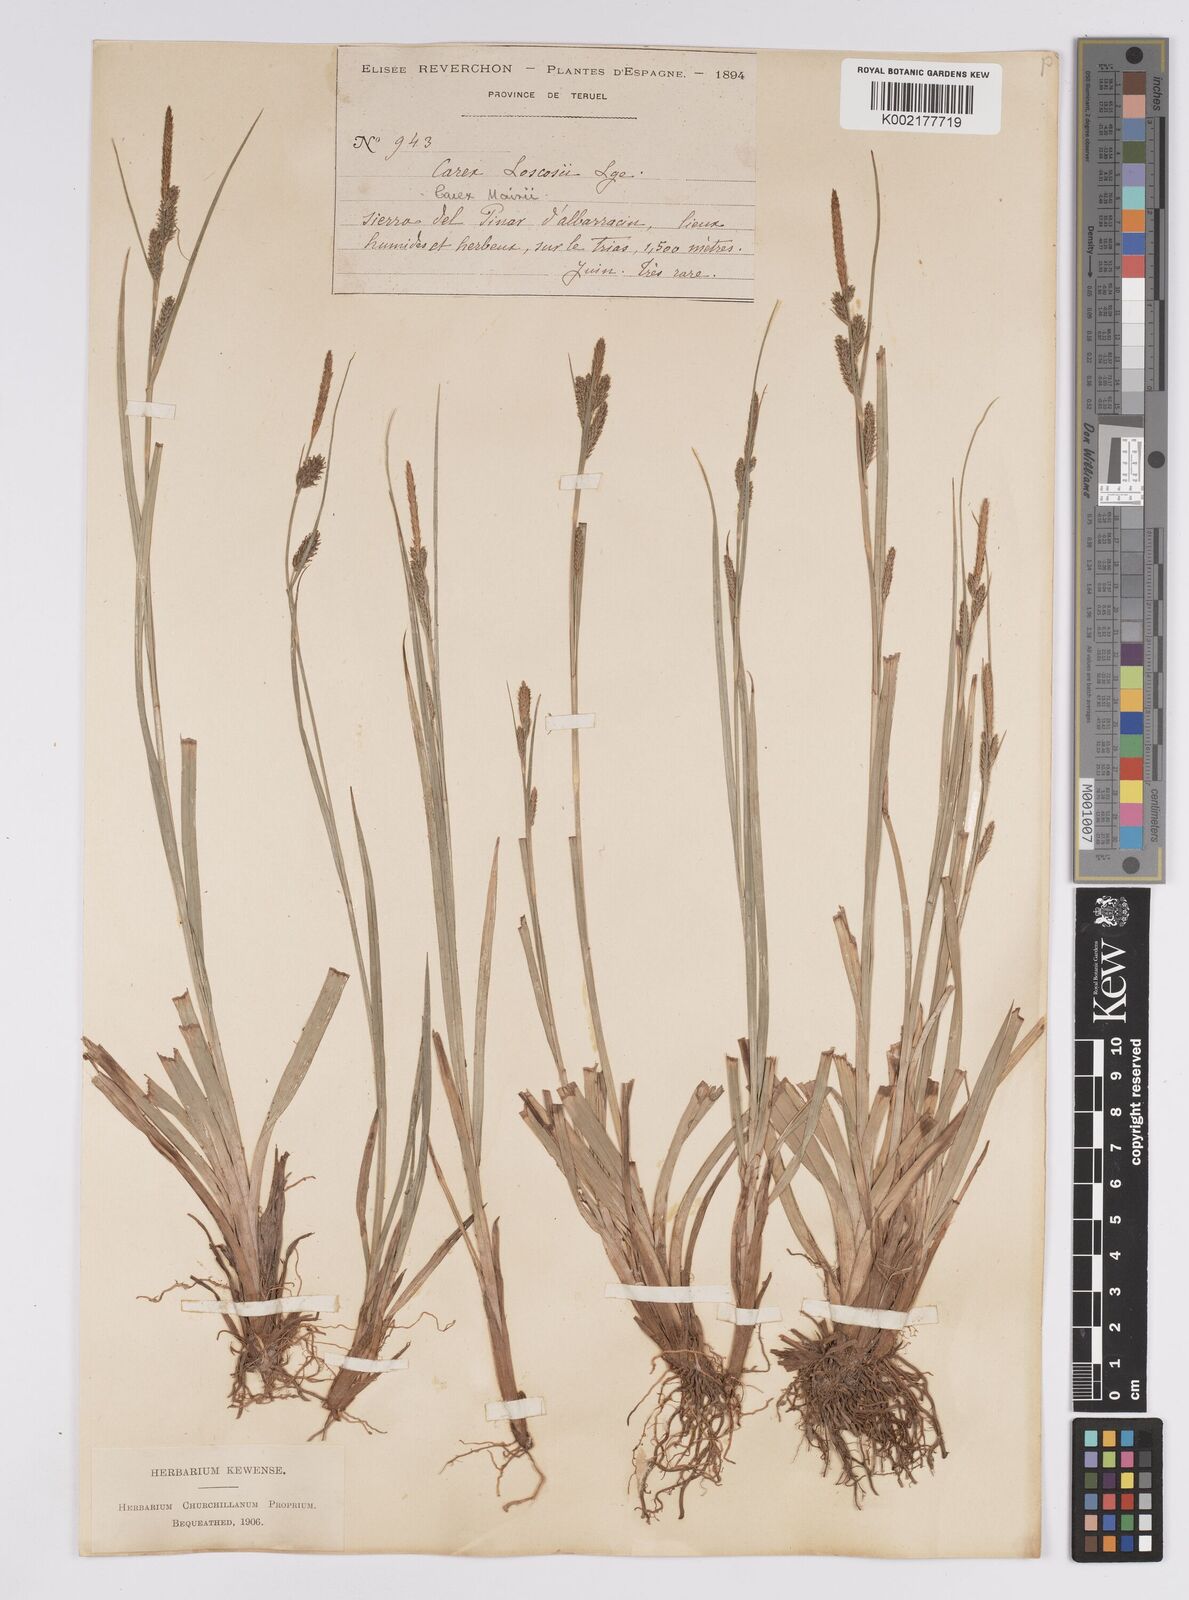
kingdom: Plantae
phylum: Tracheophyta
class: Liliopsida
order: Poales
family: Cyperaceae
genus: Carex
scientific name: Carex mairei
